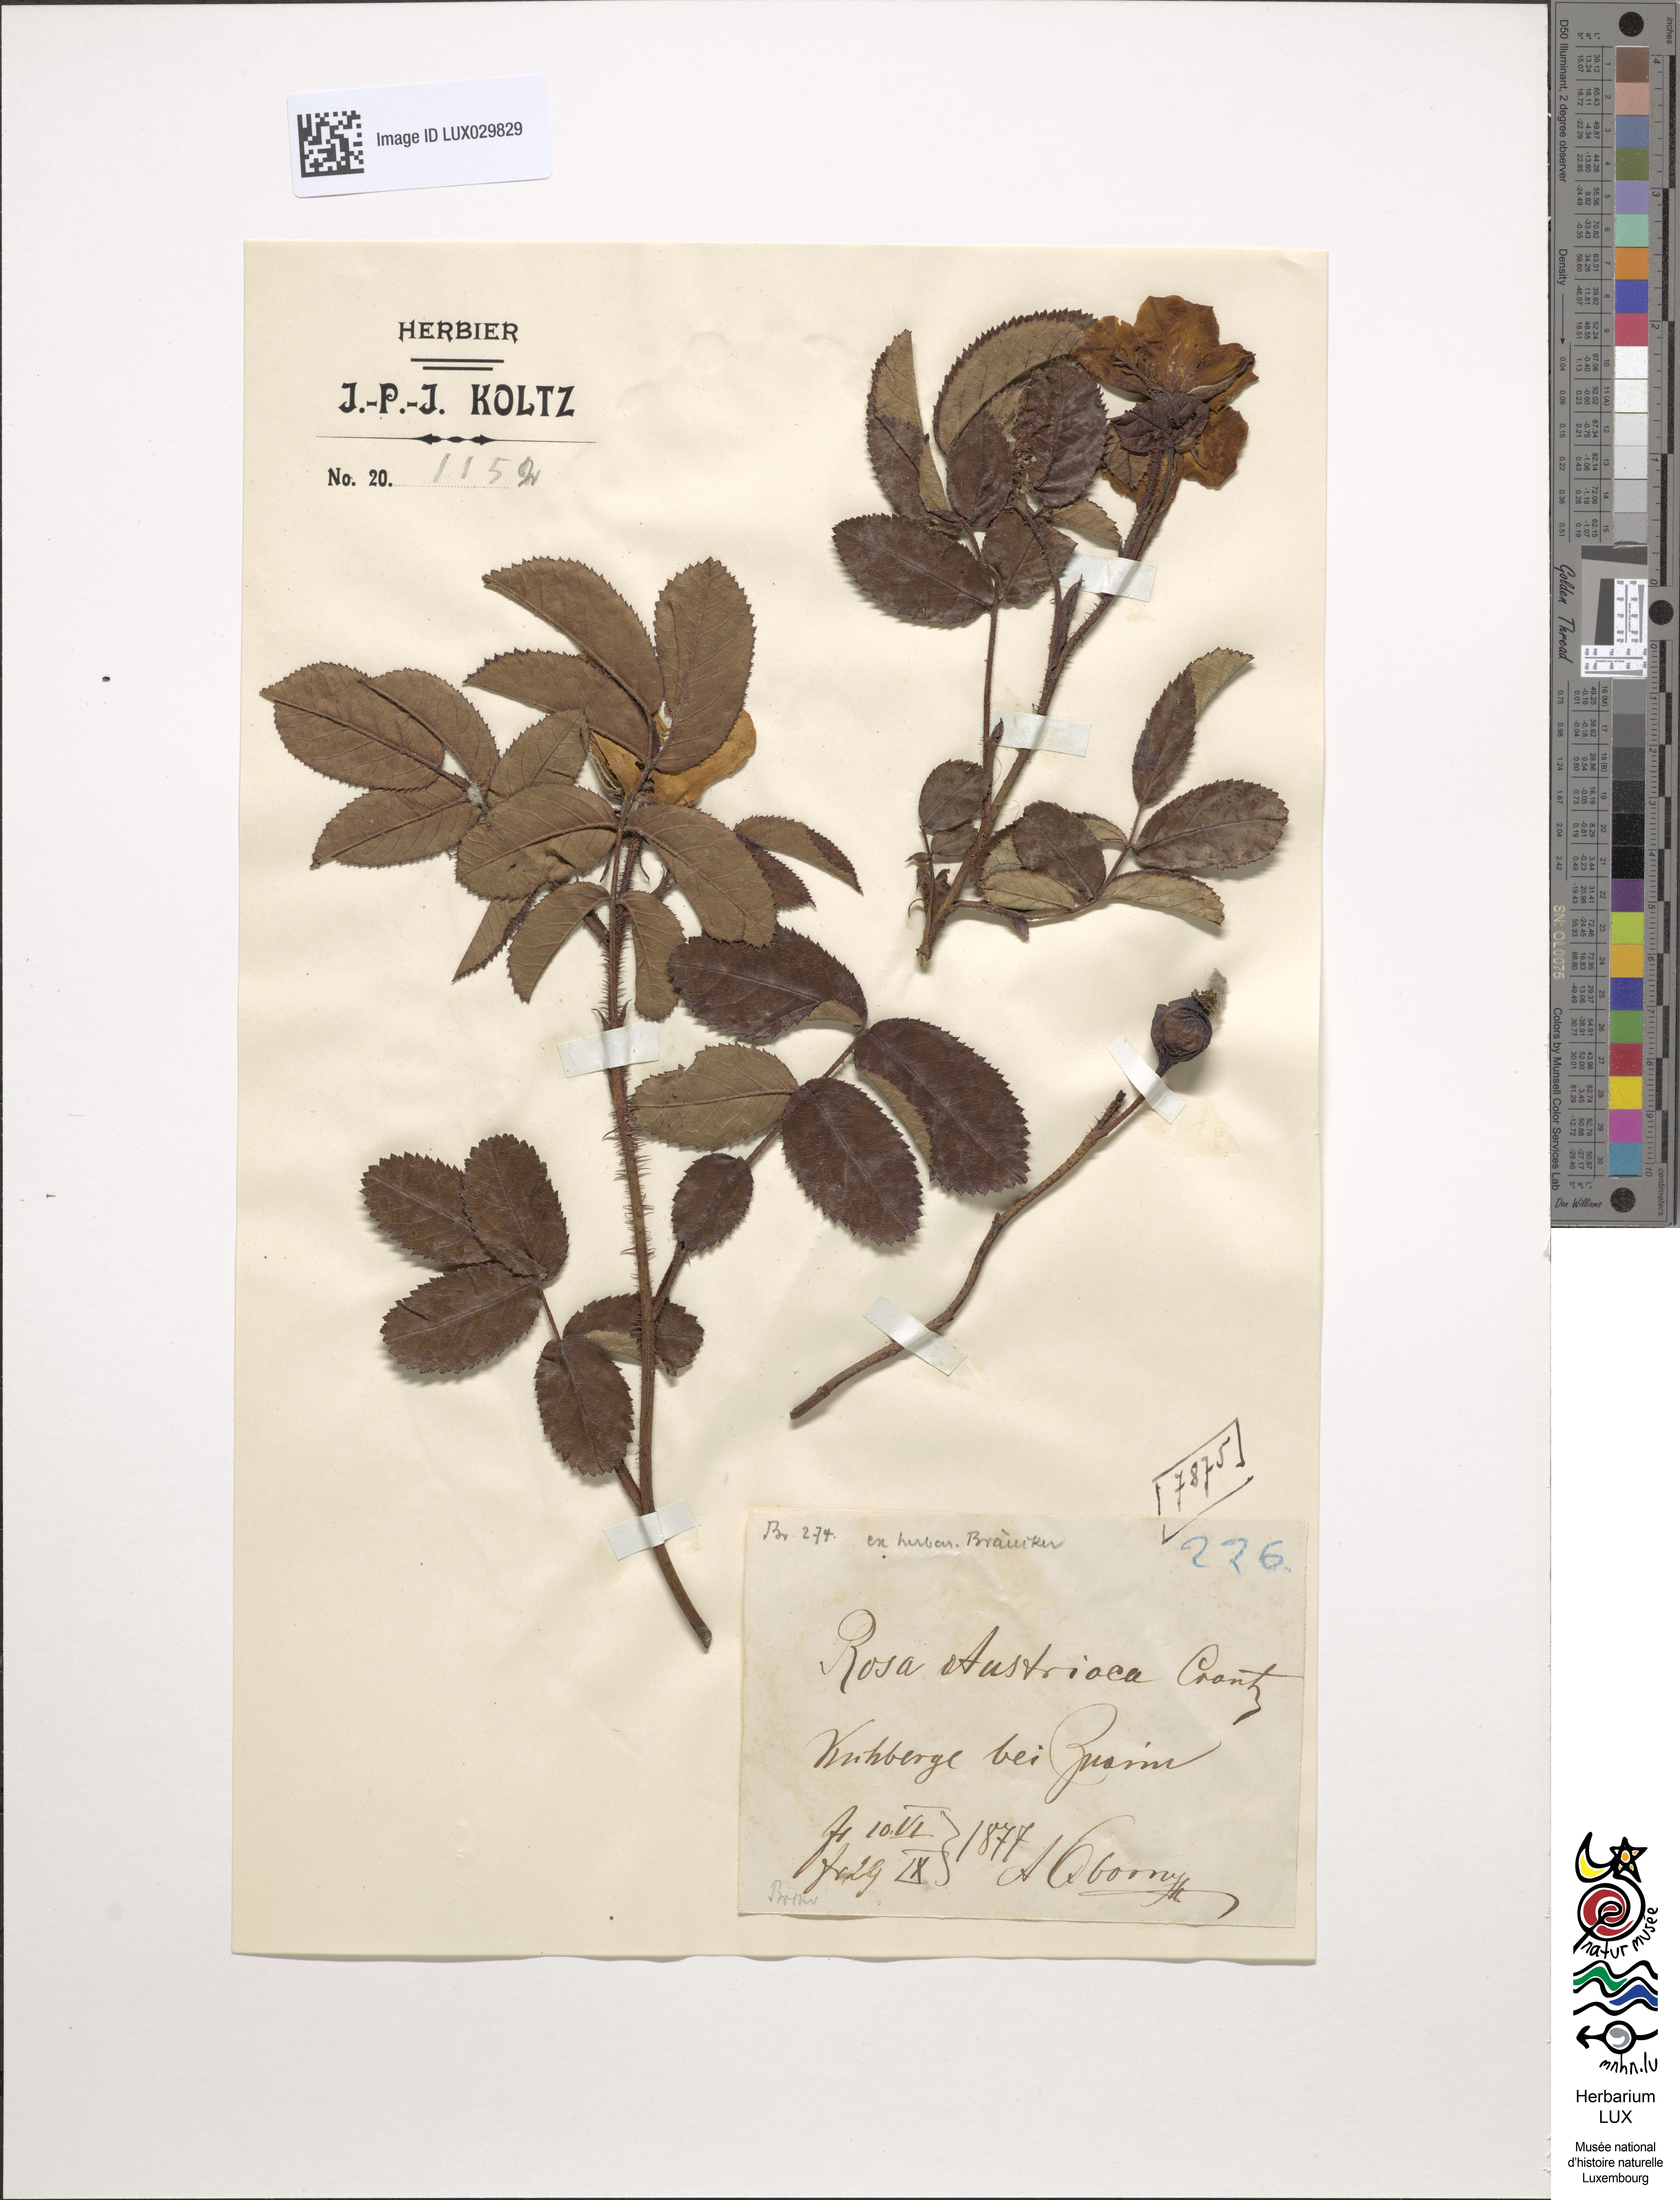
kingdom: Plantae
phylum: Tracheophyta
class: Magnoliopsida
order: Rosales
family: Rosaceae
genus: Rosa
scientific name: Rosa gallica
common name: French rose
